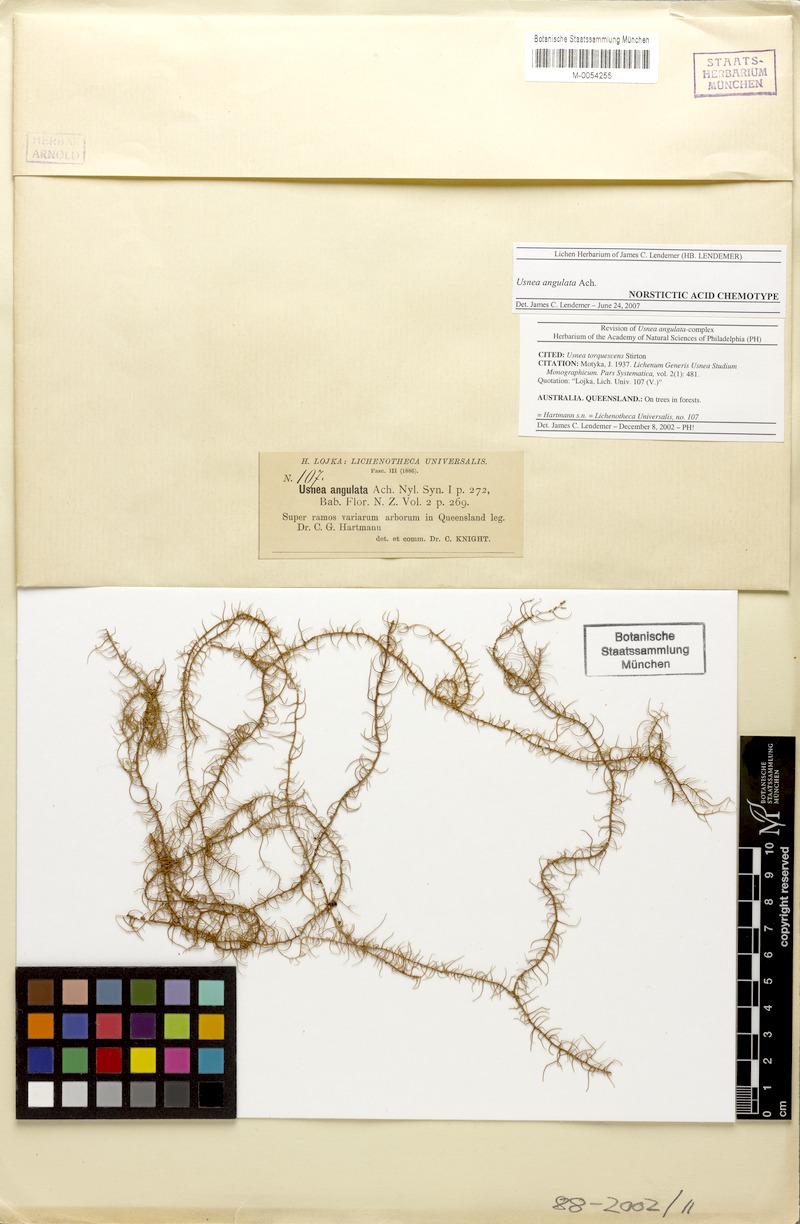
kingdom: Fungi
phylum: Ascomycota
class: Lecanoromycetes
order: Lecanorales
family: Parmeliaceae
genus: Usnea
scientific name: Usnea angulata
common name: Old-man’s beard lichen
